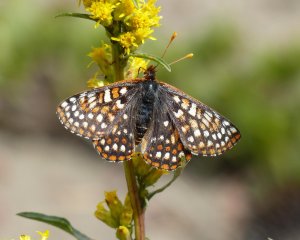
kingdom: Animalia
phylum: Arthropoda
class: Insecta
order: Lepidoptera
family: Nymphalidae
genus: Occidryas
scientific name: Occidryas anicia
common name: Anicia Checkerspot
